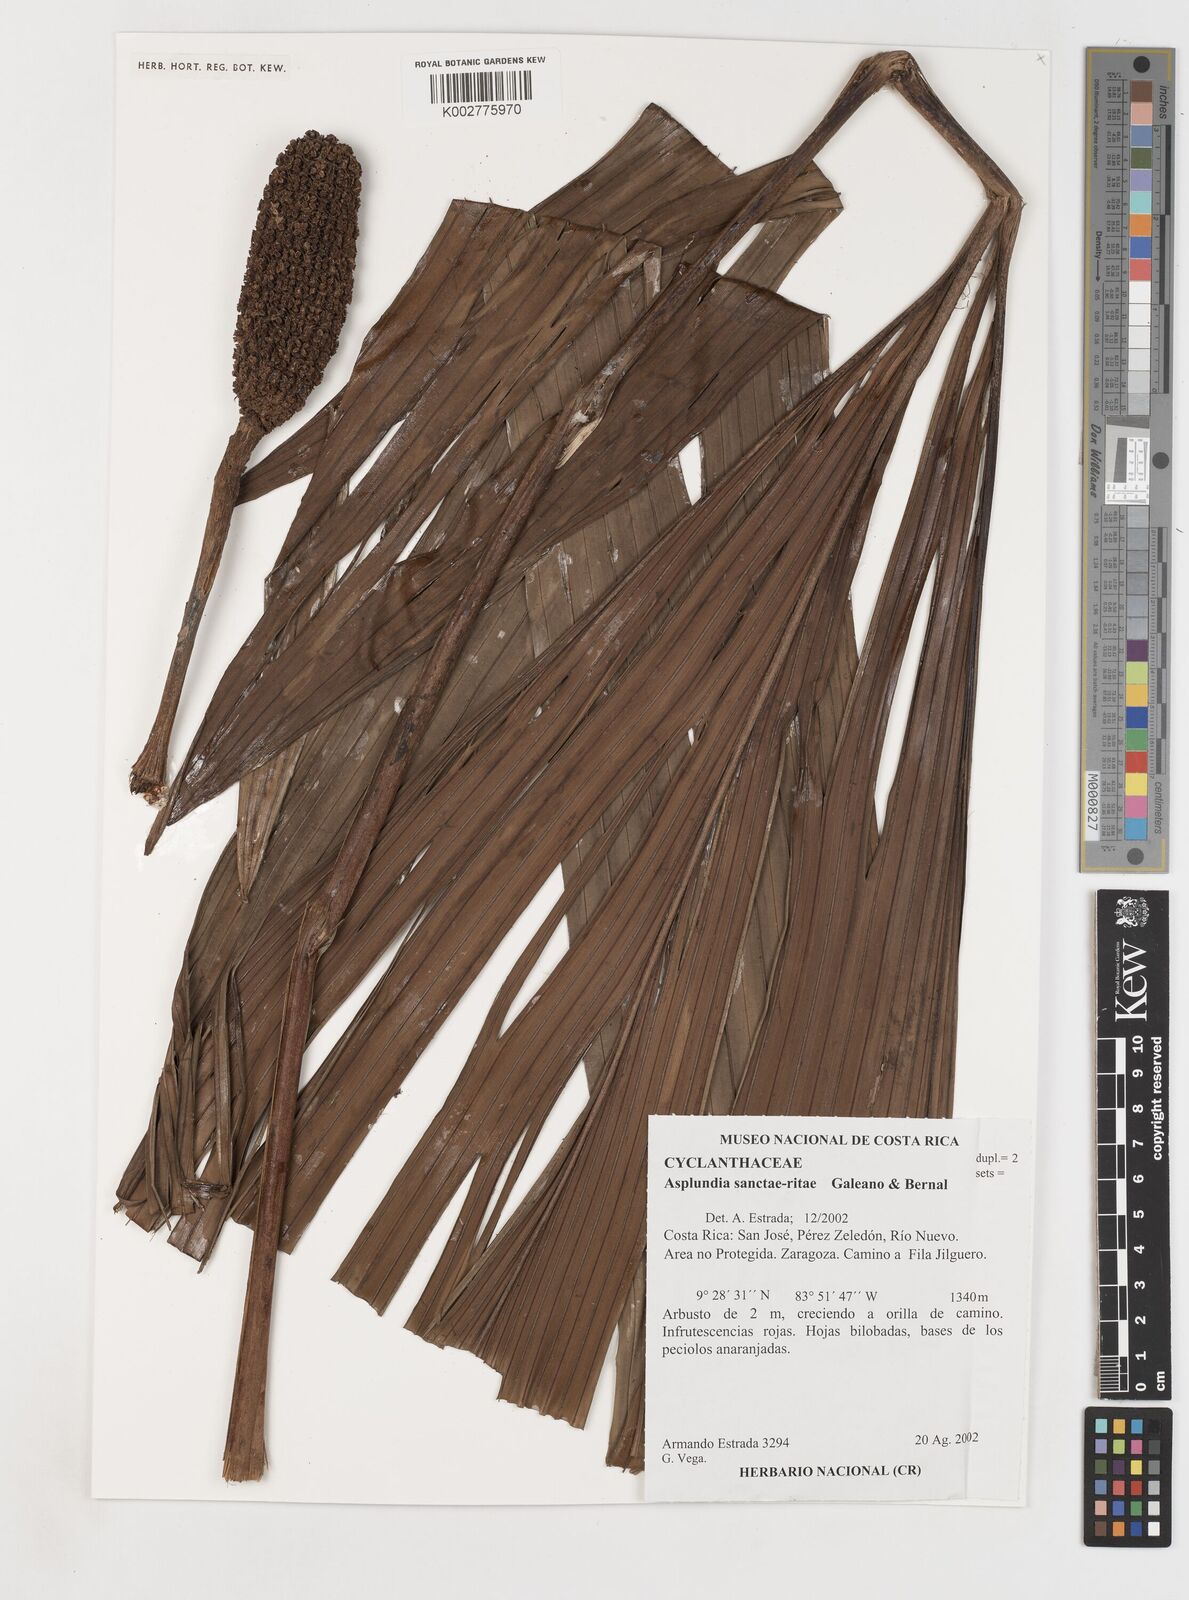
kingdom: Plantae
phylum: Tracheophyta
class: Liliopsida
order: Pandanales
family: Cyclanthaceae
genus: Asplundia
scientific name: Asplundia sanctae-ritae
